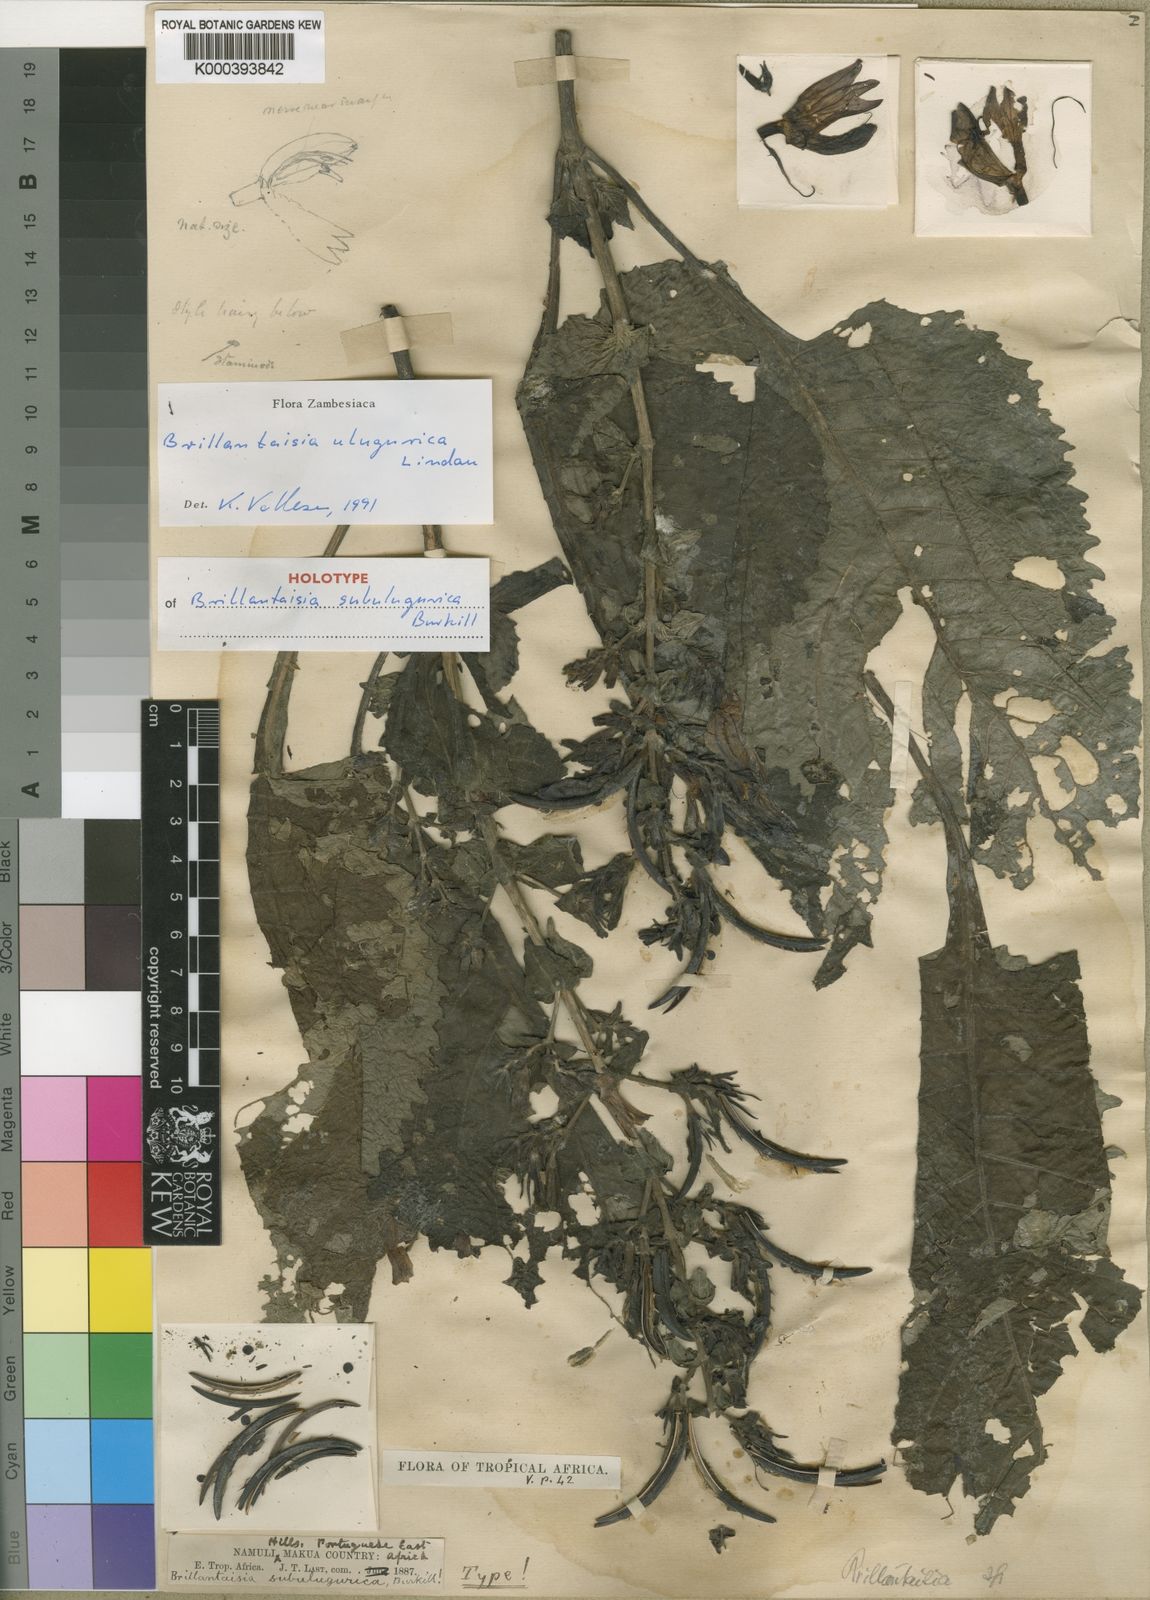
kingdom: Plantae
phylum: Tracheophyta
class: Magnoliopsida
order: Lamiales
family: Acanthaceae
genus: Brillantaisia
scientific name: Brillantaisia cicatricosa
